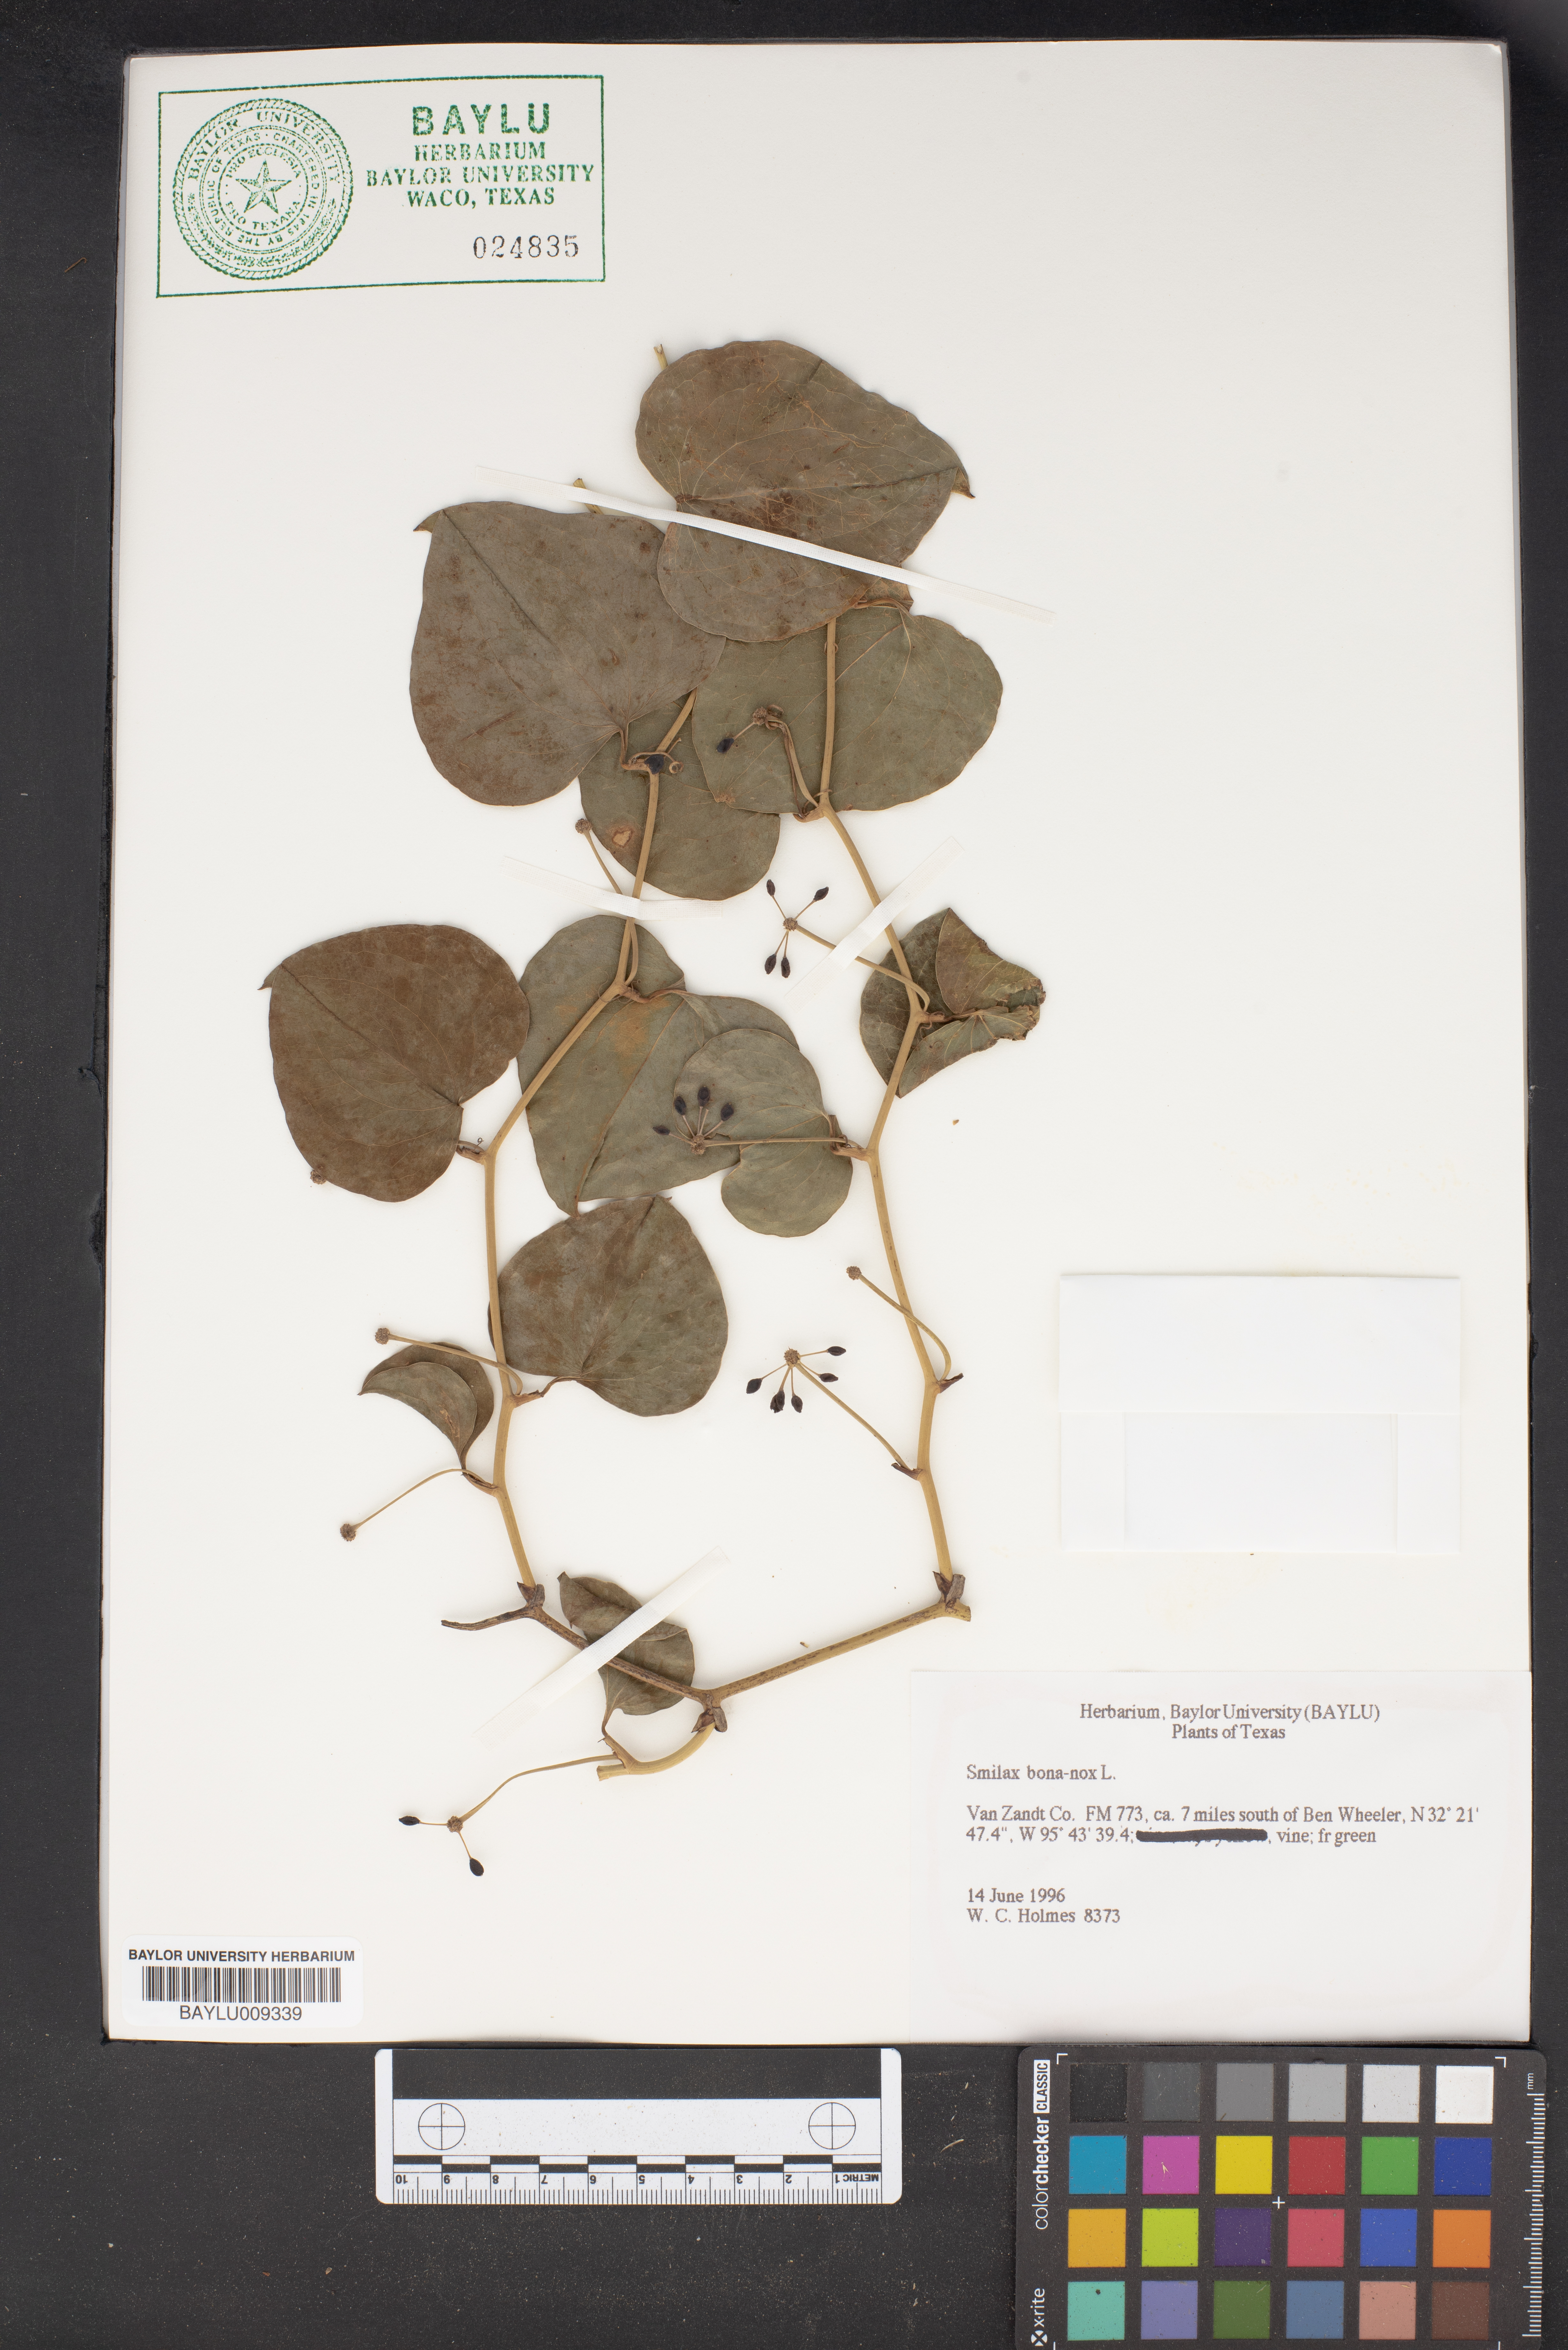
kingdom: Plantae
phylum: Tracheophyta
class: Liliopsida
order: Liliales
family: Smilacaceae
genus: Smilax
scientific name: Smilax bona-nox
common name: Catbrier
